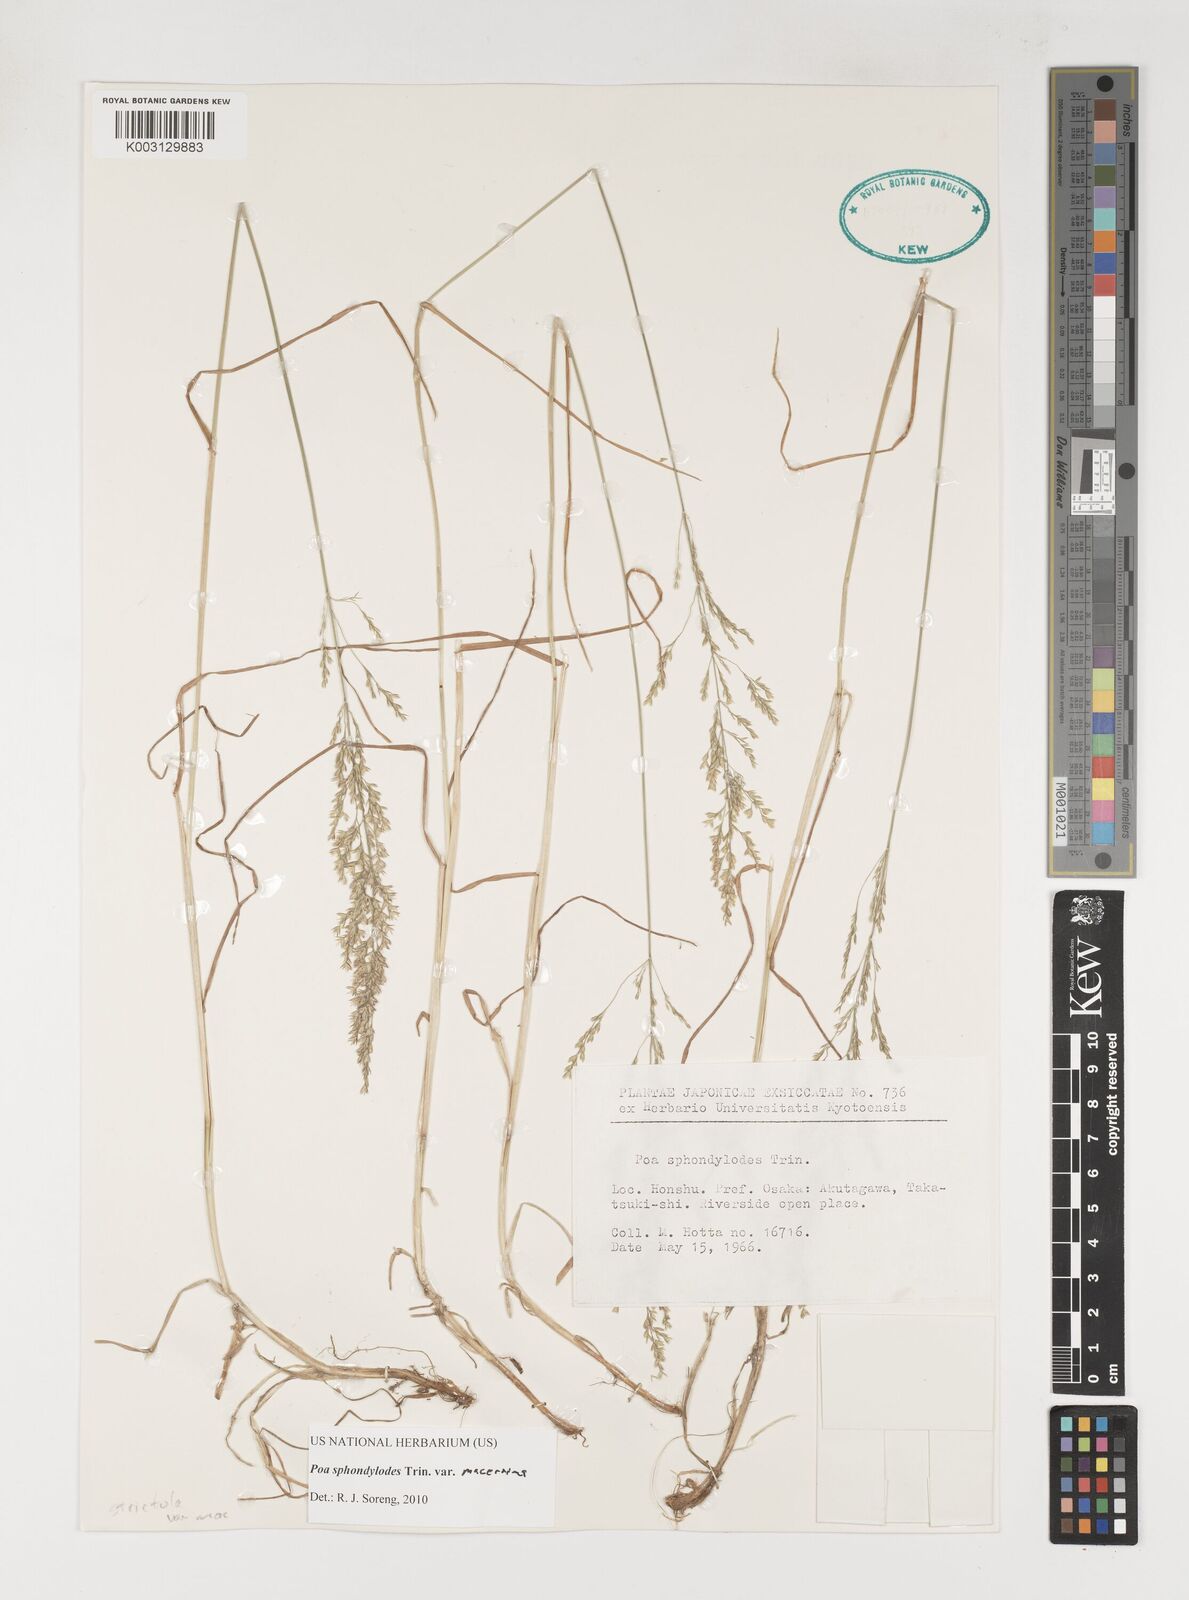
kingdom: Plantae
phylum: Tracheophyta
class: Liliopsida
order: Poales
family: Poaceae
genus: Poa
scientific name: Poa sphondylodes
